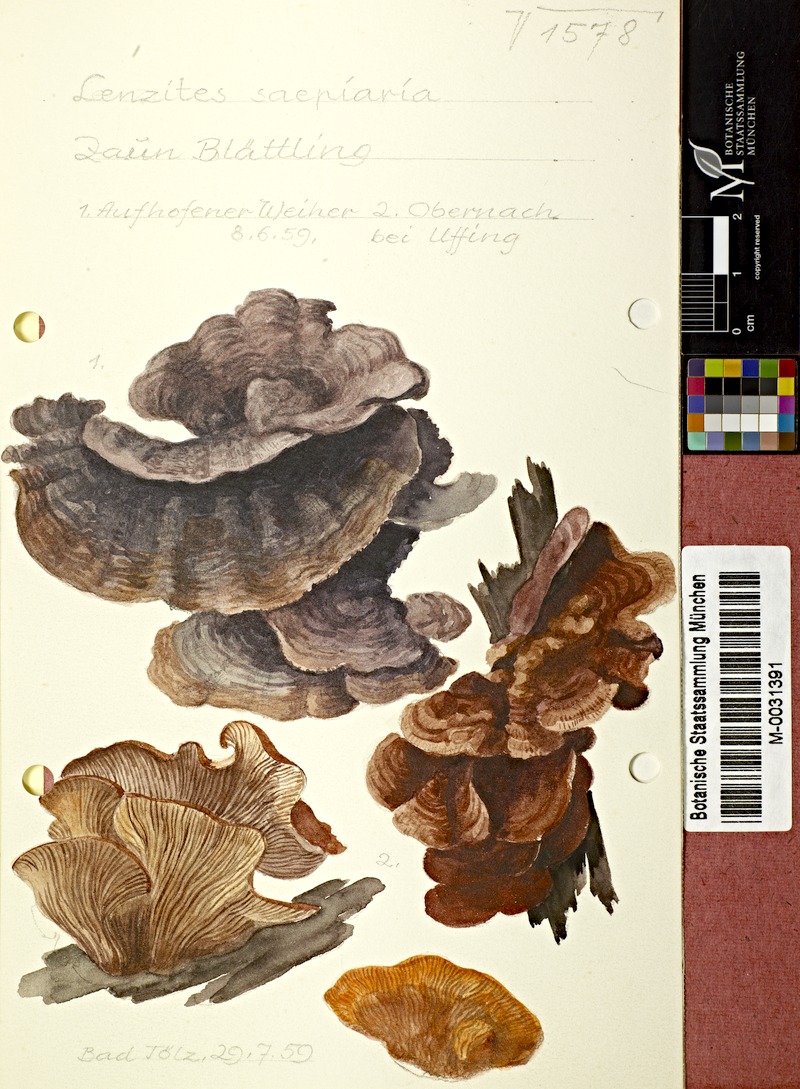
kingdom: Fungi
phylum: Basidiomycota
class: Agaricomycetes
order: Gloeophyllales
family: Gloeophyllaceae
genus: Gloeophyllum
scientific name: Gloeophyllum sepiarium
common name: Conifer mazegill
